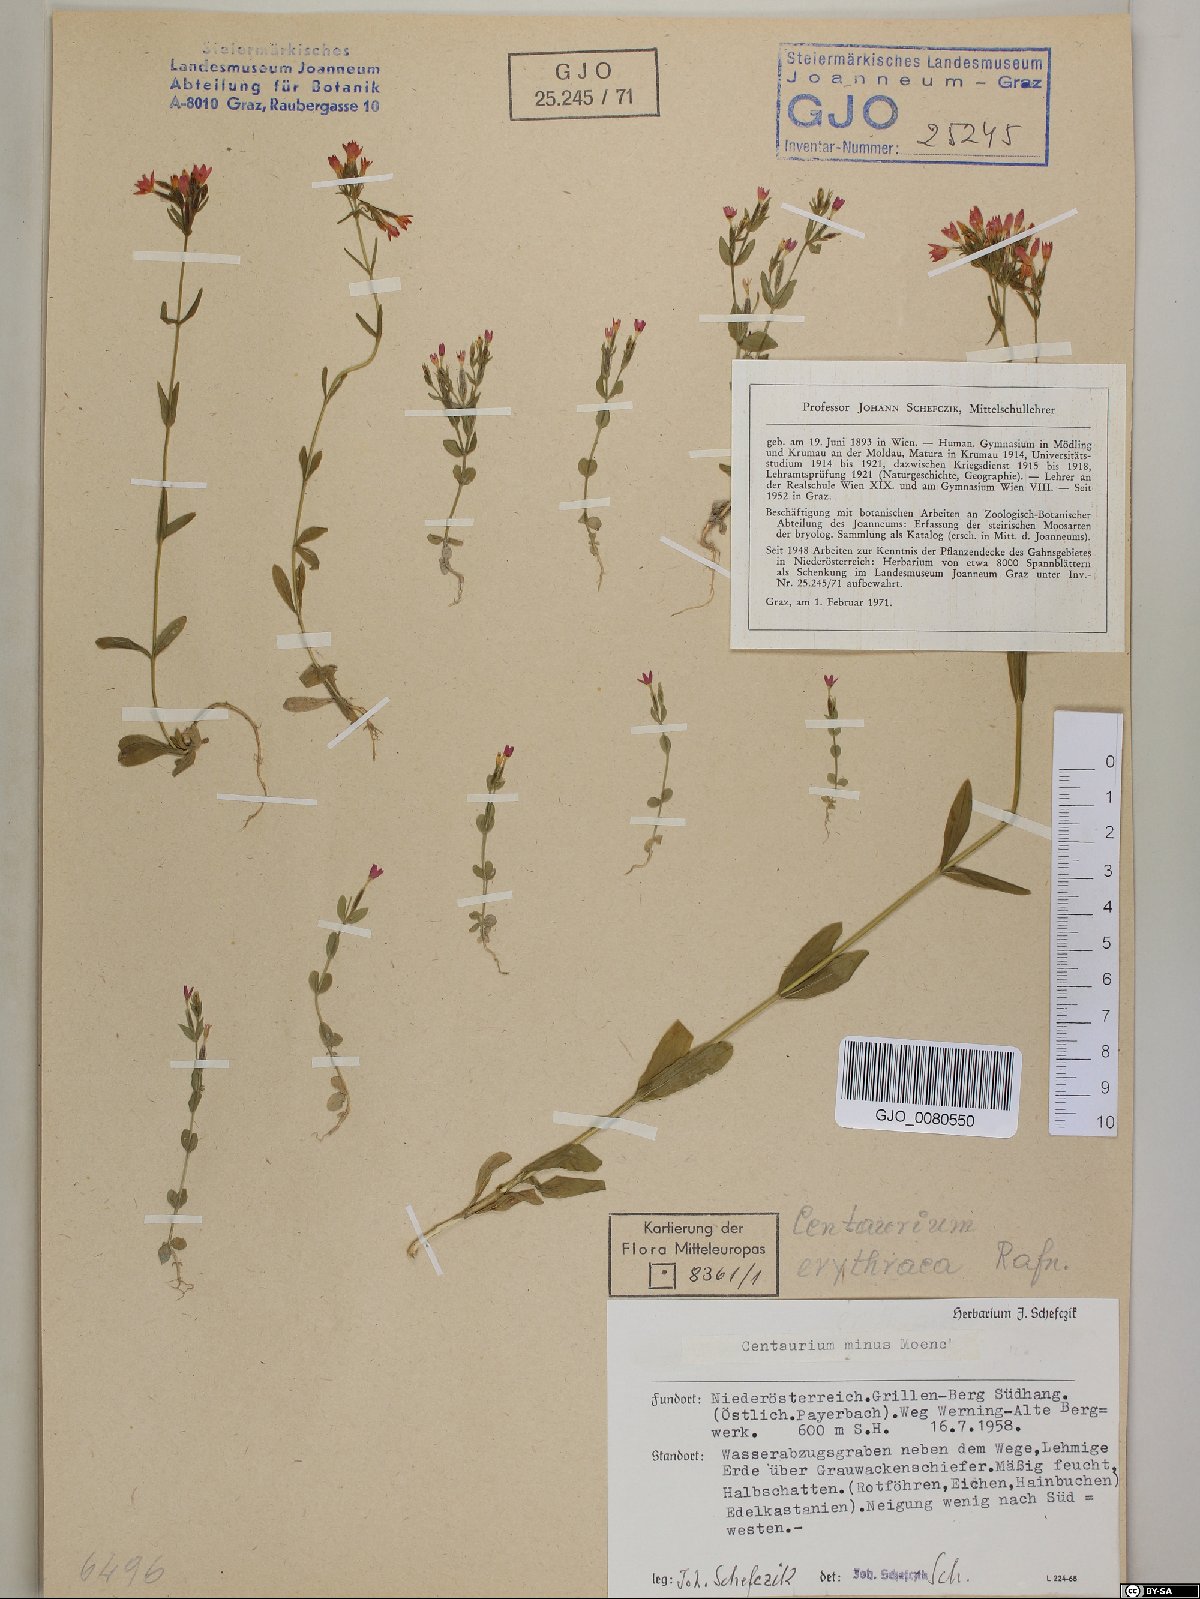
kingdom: Plantae
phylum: Tracheophyta
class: Magnoliopsida
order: Gentianales
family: Gentianaceae
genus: Centaurium
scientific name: Centaurium erythraea
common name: Common centaury
